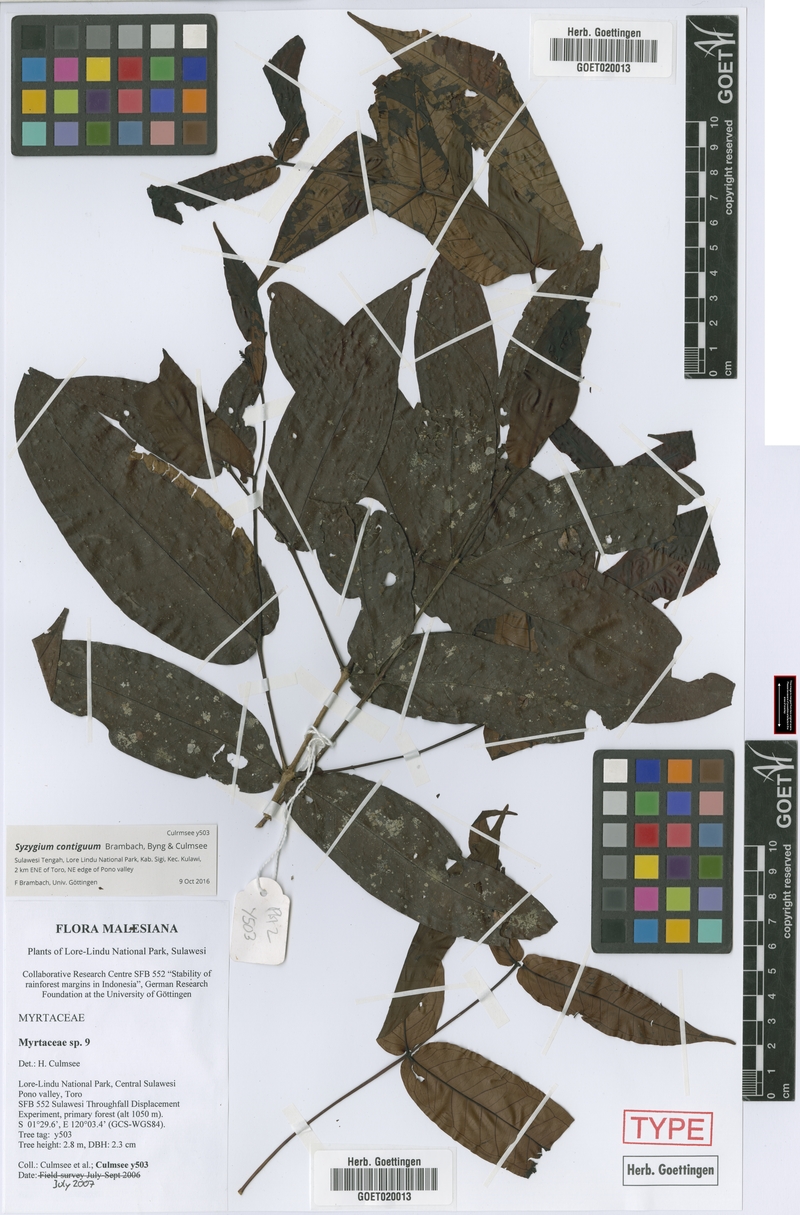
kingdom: Plantae
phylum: Tracheophyta
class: Magnoliopsida
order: Myrtales
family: Myrtaceae
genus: Syzygium
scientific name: Syzygium contiguum
